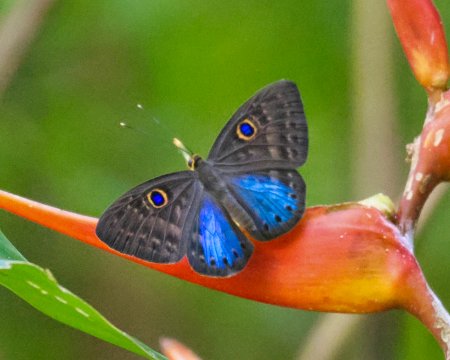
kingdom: Animalia
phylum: Cnidaria
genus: Eurybia
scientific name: Eurybia lycisca
